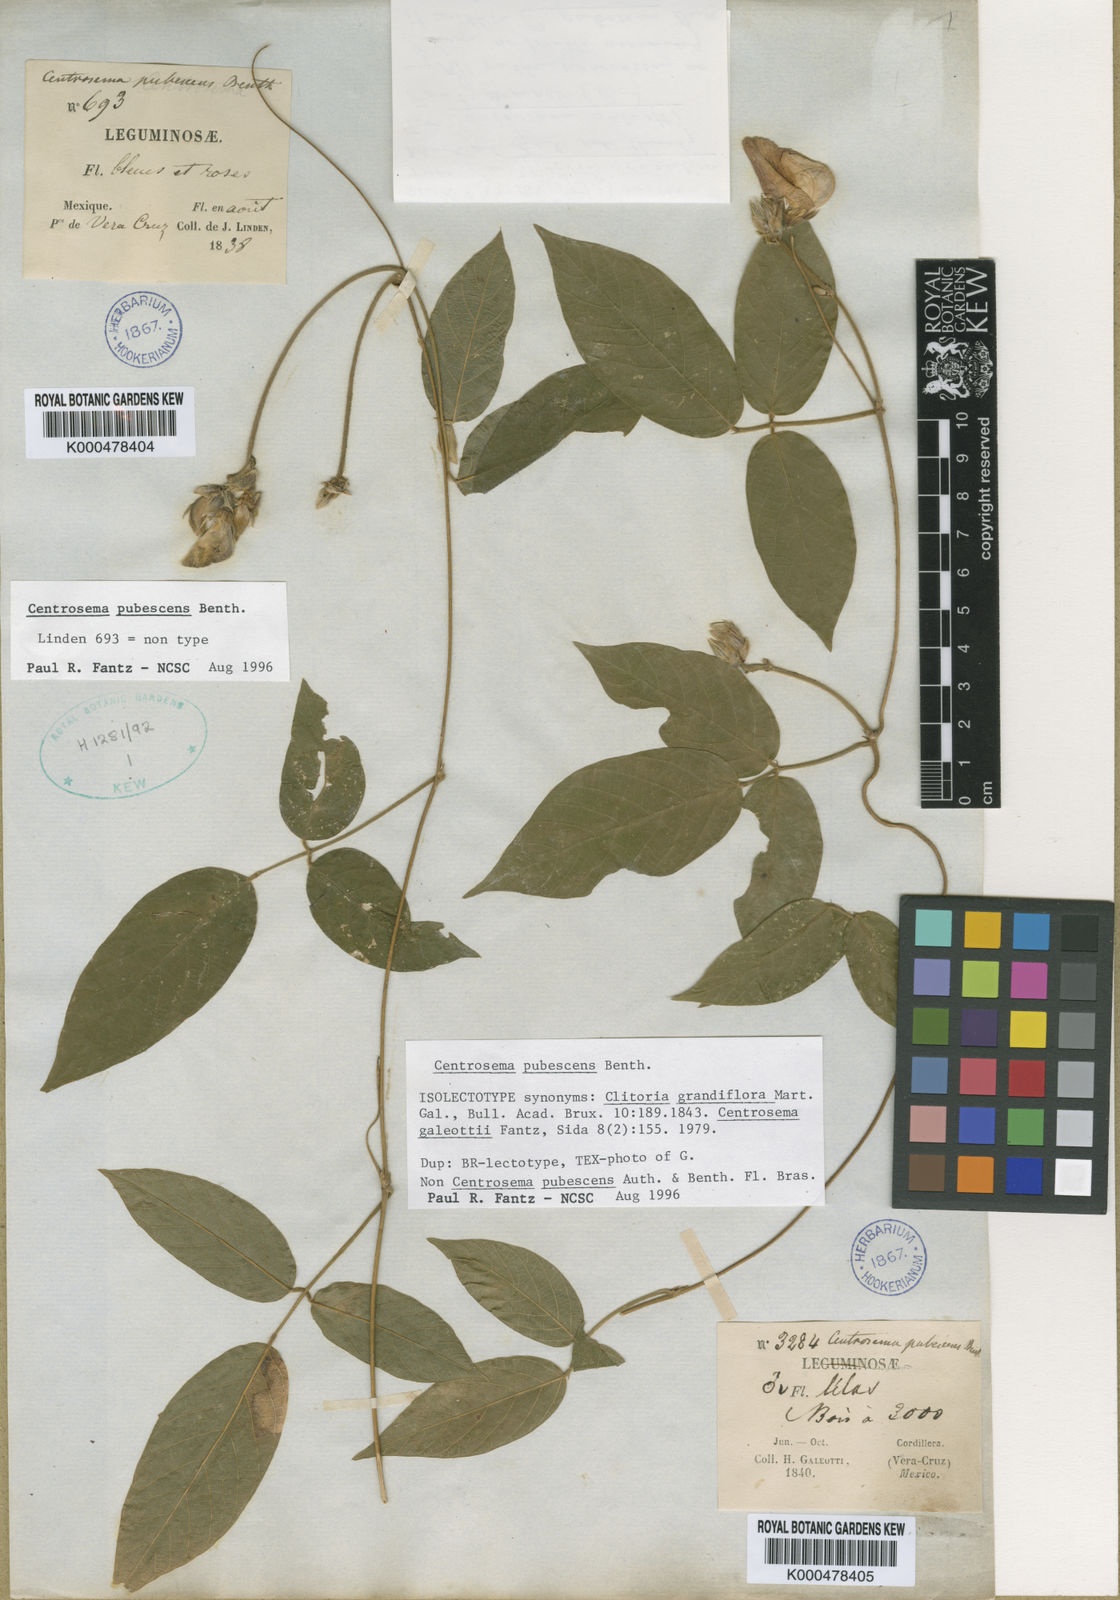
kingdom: Plantae
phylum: Tracheophyta
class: Magnoliopsida
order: Fabales
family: Fabaceae
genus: Centrosema
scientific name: Centrosema pubescens
